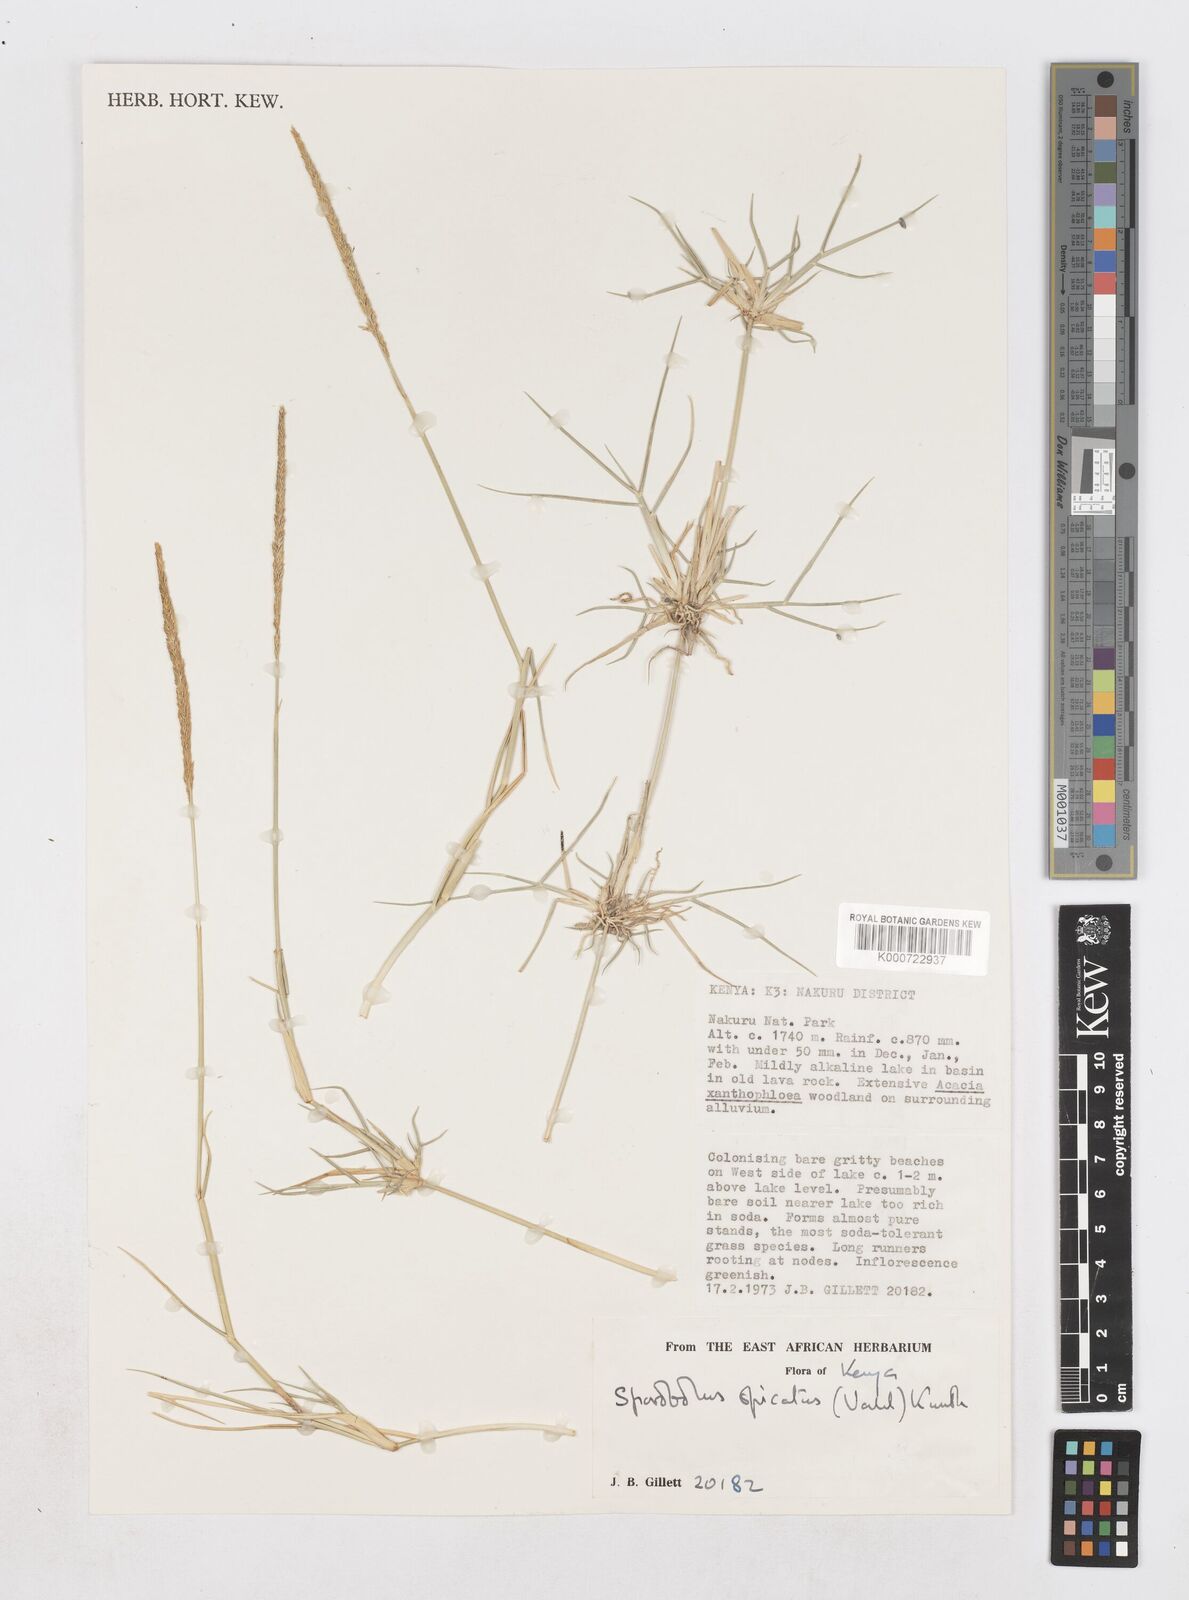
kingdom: Plantae
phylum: Tracheophyta
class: Liliopsida
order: Poales
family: Poaceae
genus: Sporobolus
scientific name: Sporobolus spicatus
